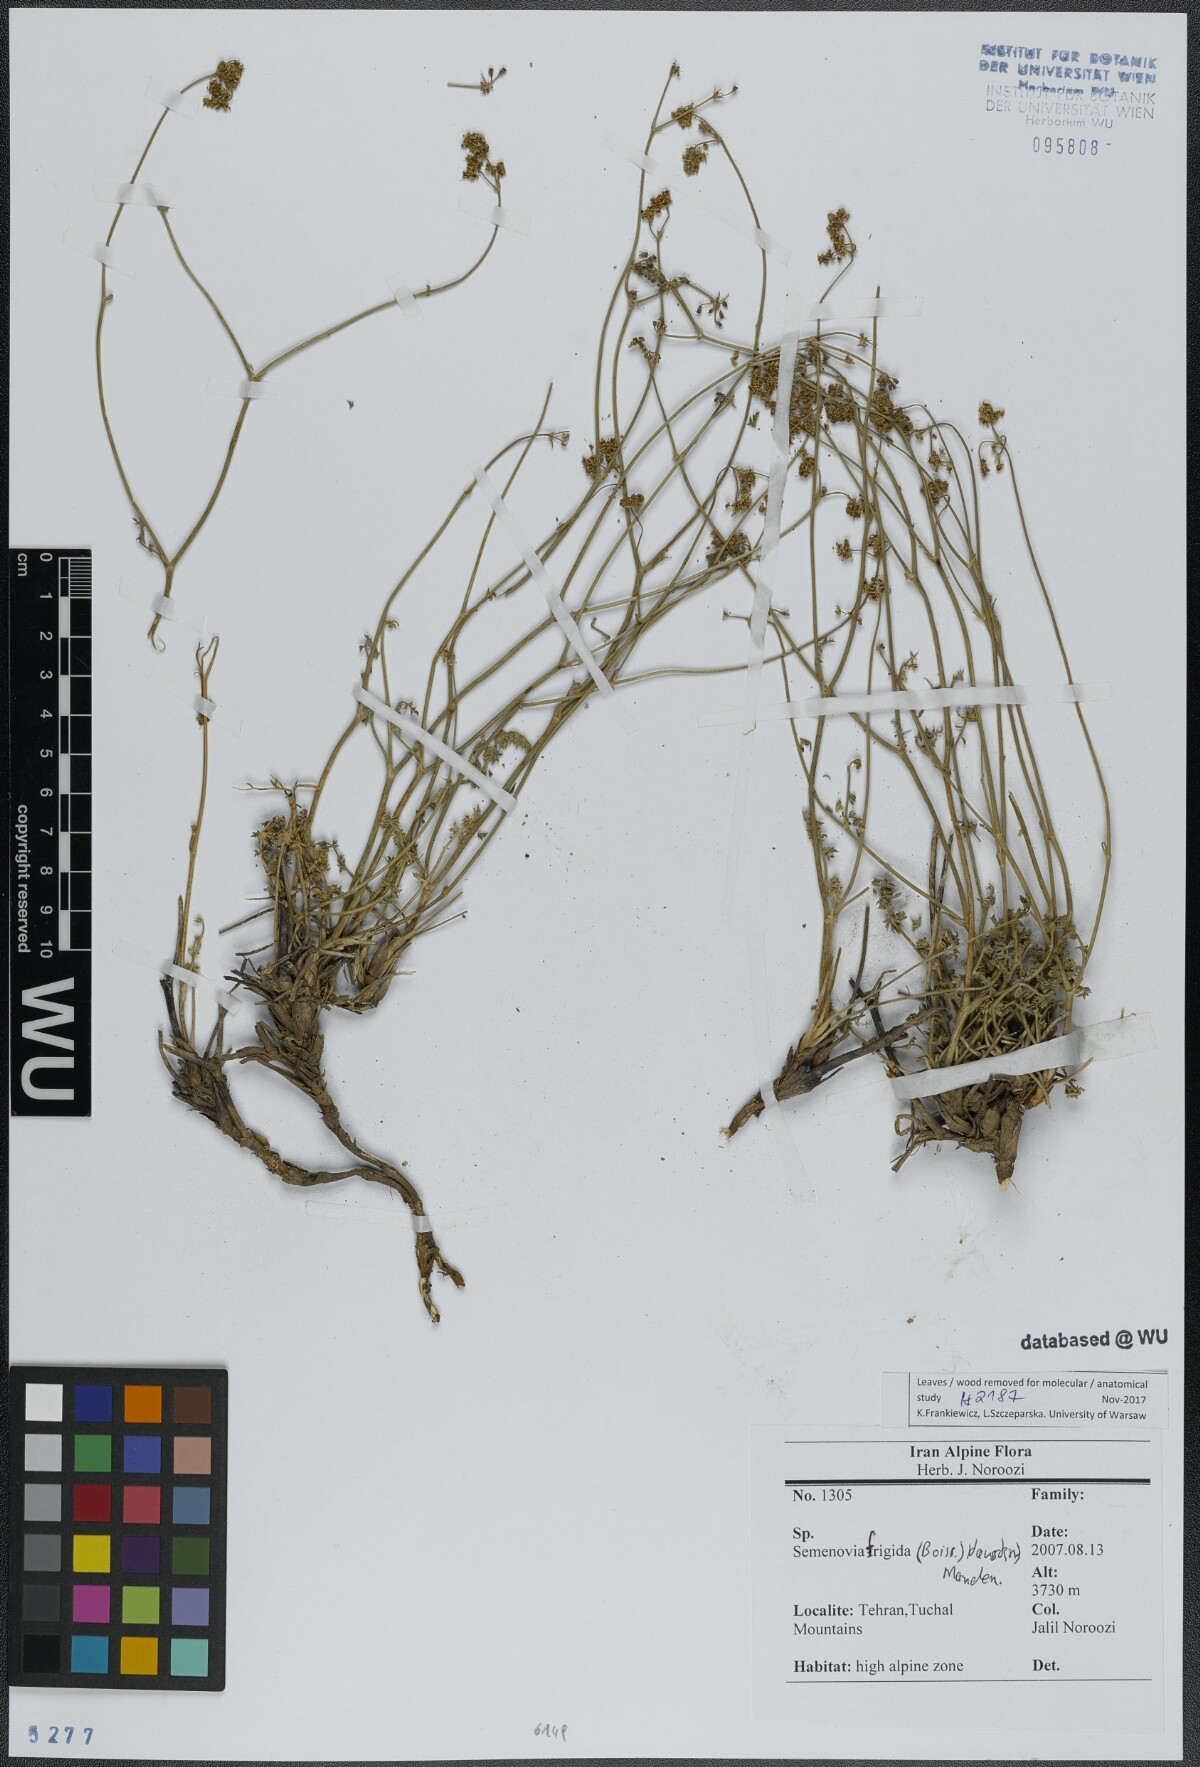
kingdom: Plantae
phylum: Tracheophyta
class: Magnoliopsida
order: Apiales
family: Apiaceae
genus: Semenovia
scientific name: Semenovia frigida
